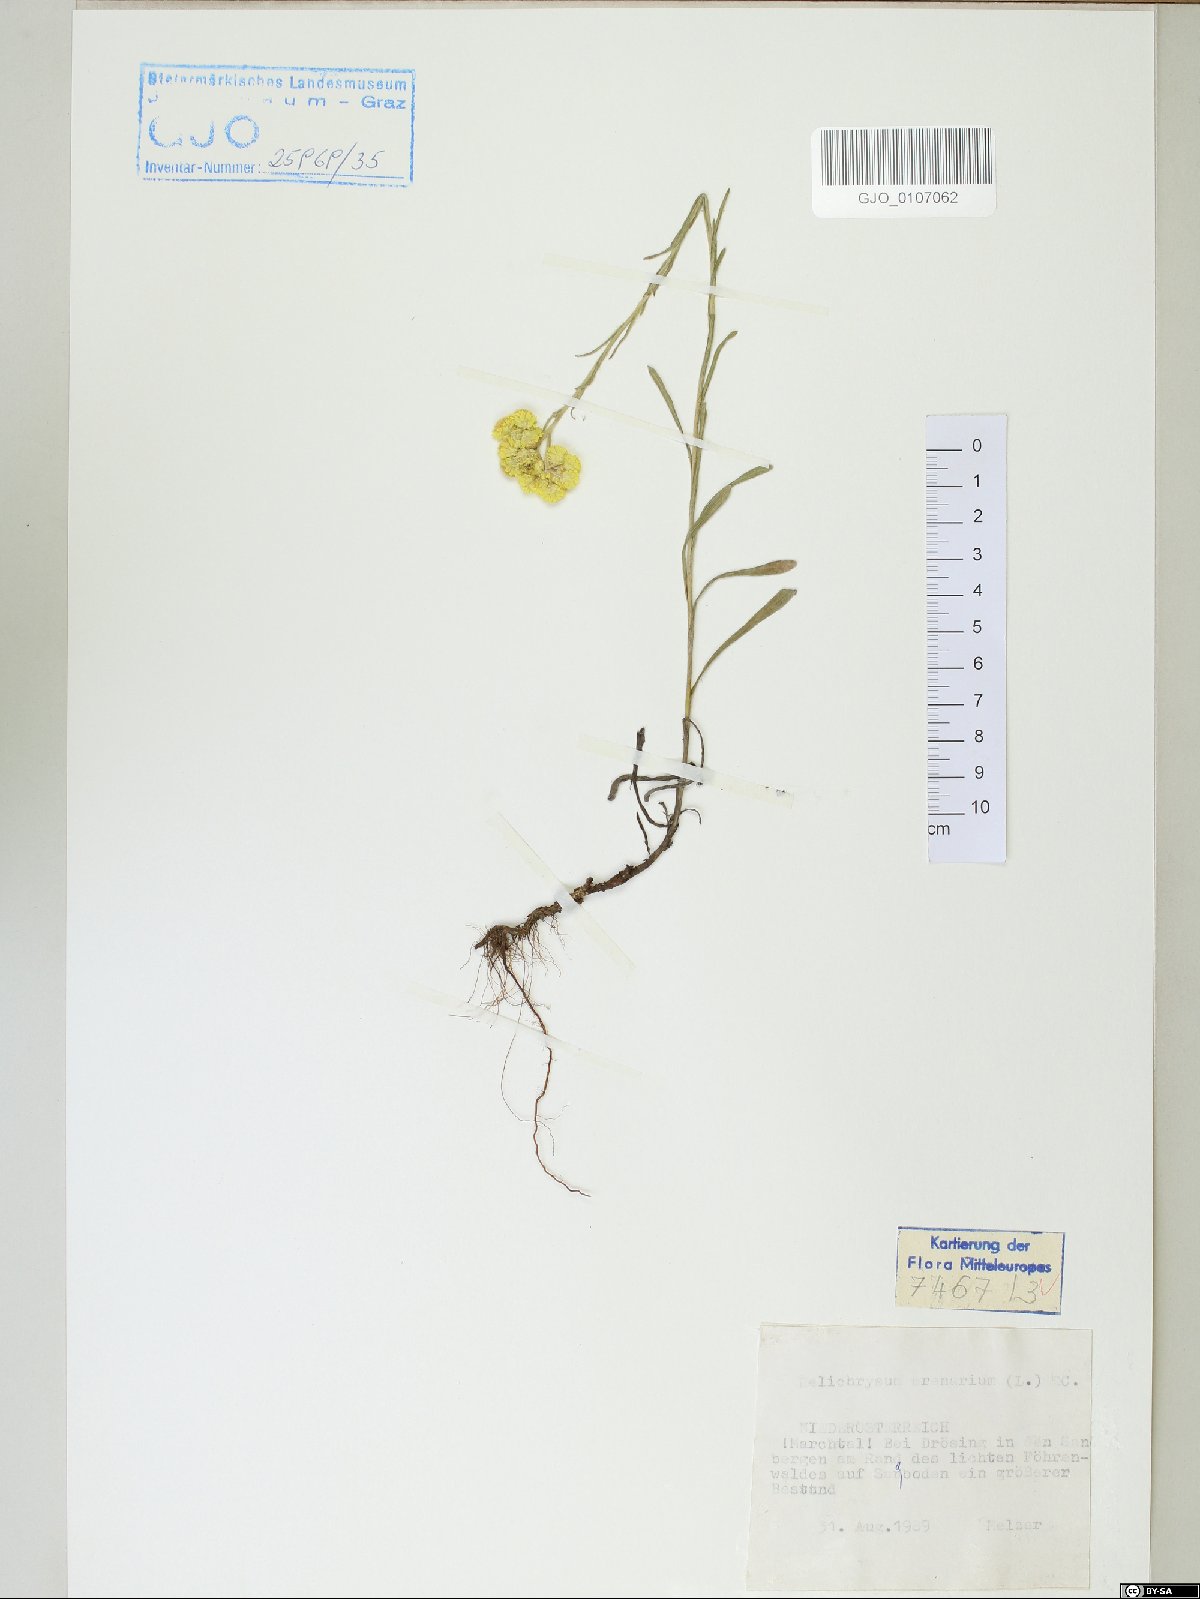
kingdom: Plantae
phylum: Tracheophyta
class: Magnoliopsida
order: Asterales
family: Asteraceae
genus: Helichrysum
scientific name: Helichrysum arenarium
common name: Strawflower
